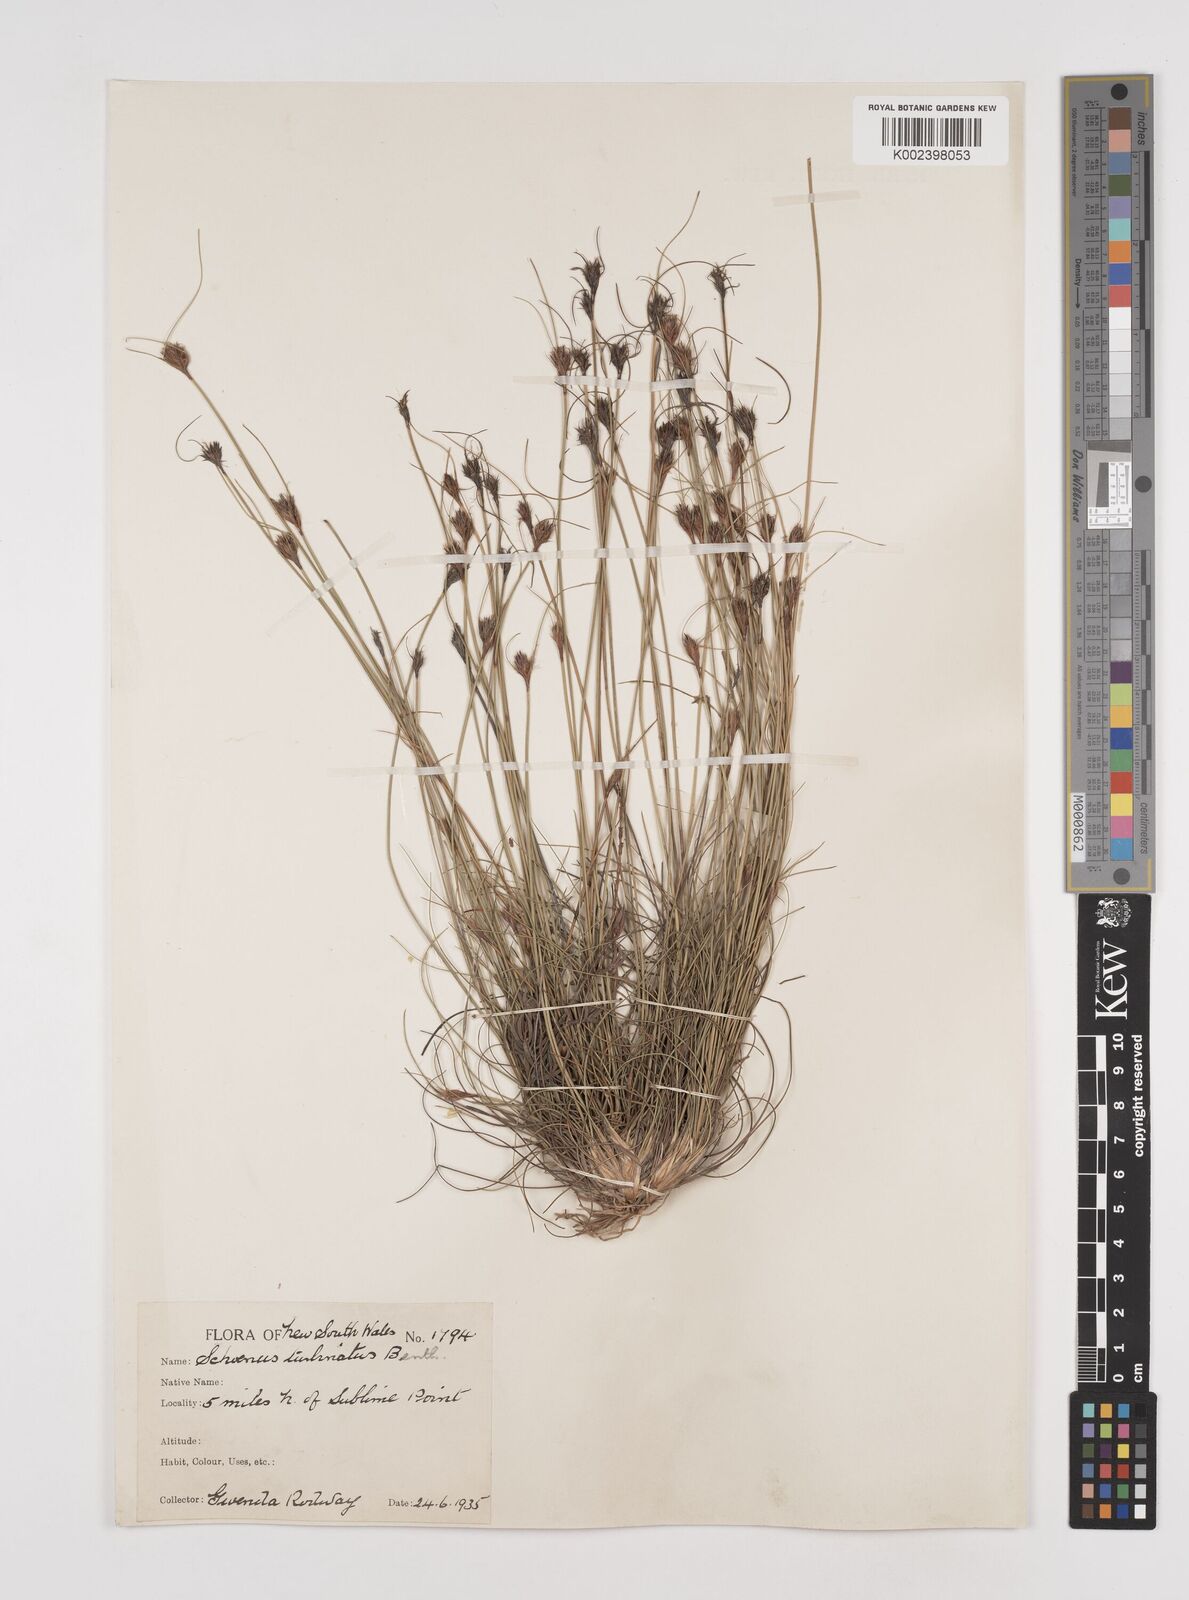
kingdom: Plantae
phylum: Tracheophyta
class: Liliopsida
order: Poales
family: Cyperaceae
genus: Schoenus
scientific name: Schoenus turbinatus
